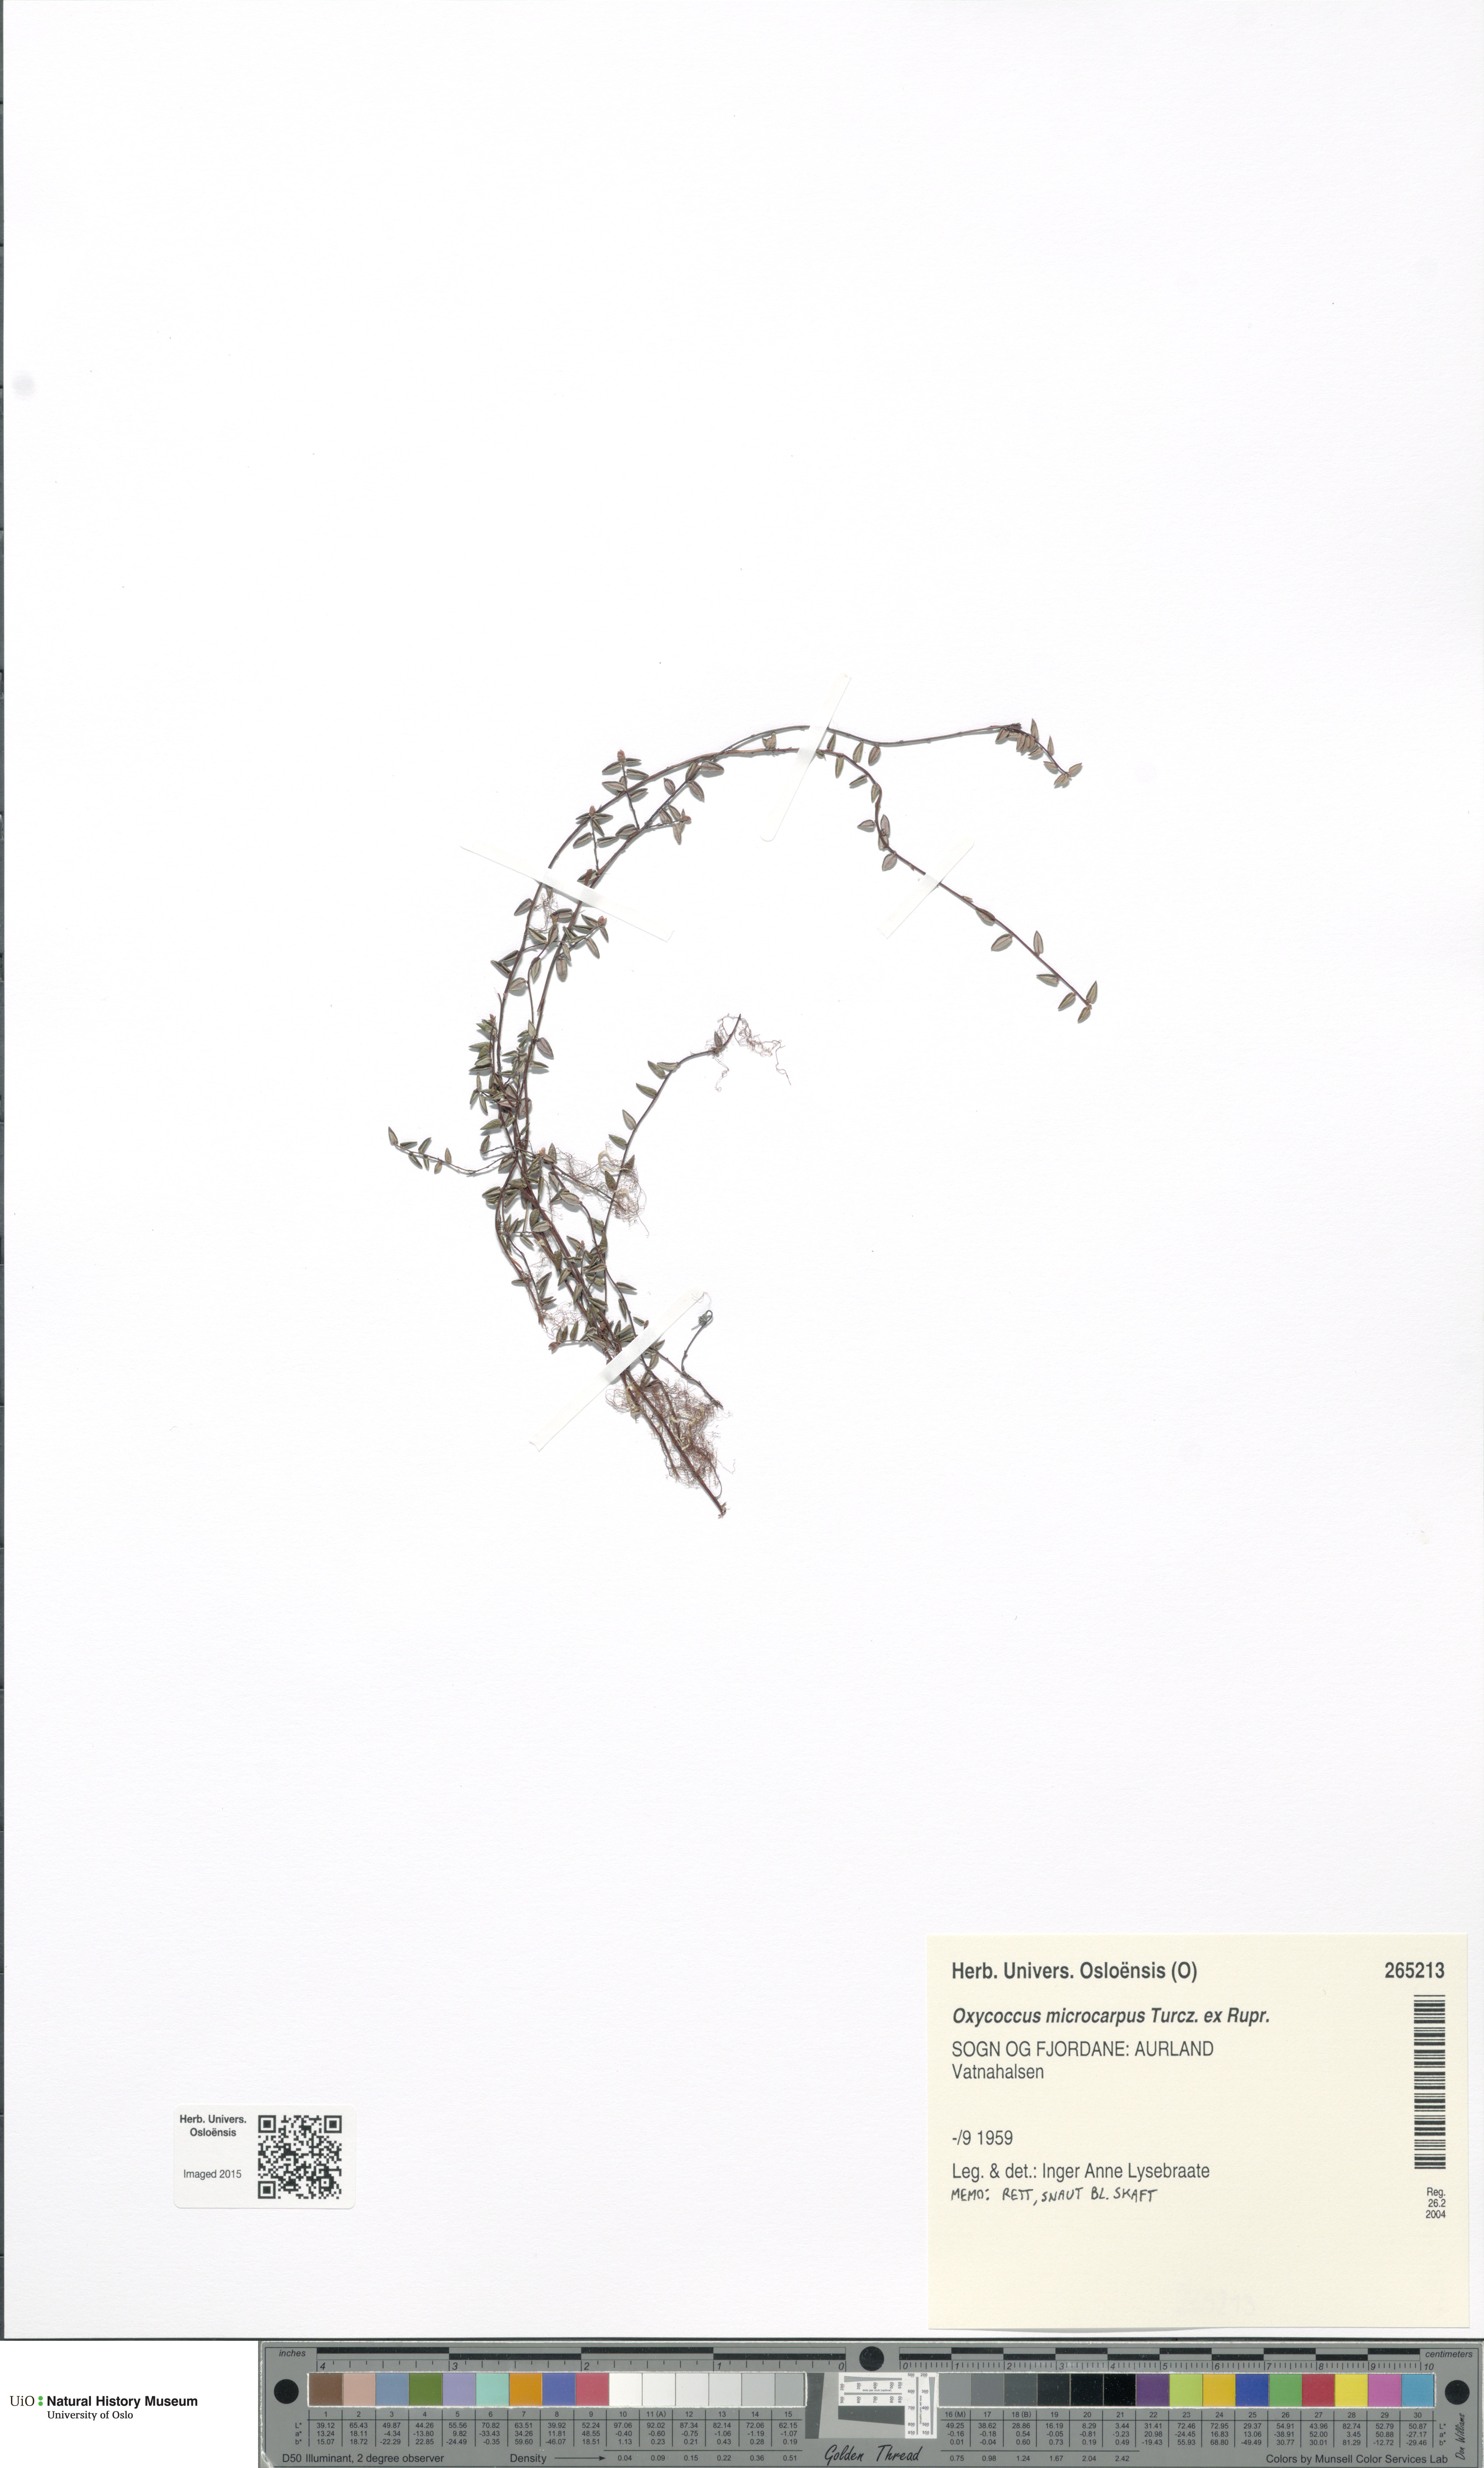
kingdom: Plantae
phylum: Tracheophyta
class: Magnoliopsida
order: Ericales
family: Ericaceae
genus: Vaccinium
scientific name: Vaccinium microcarpum
